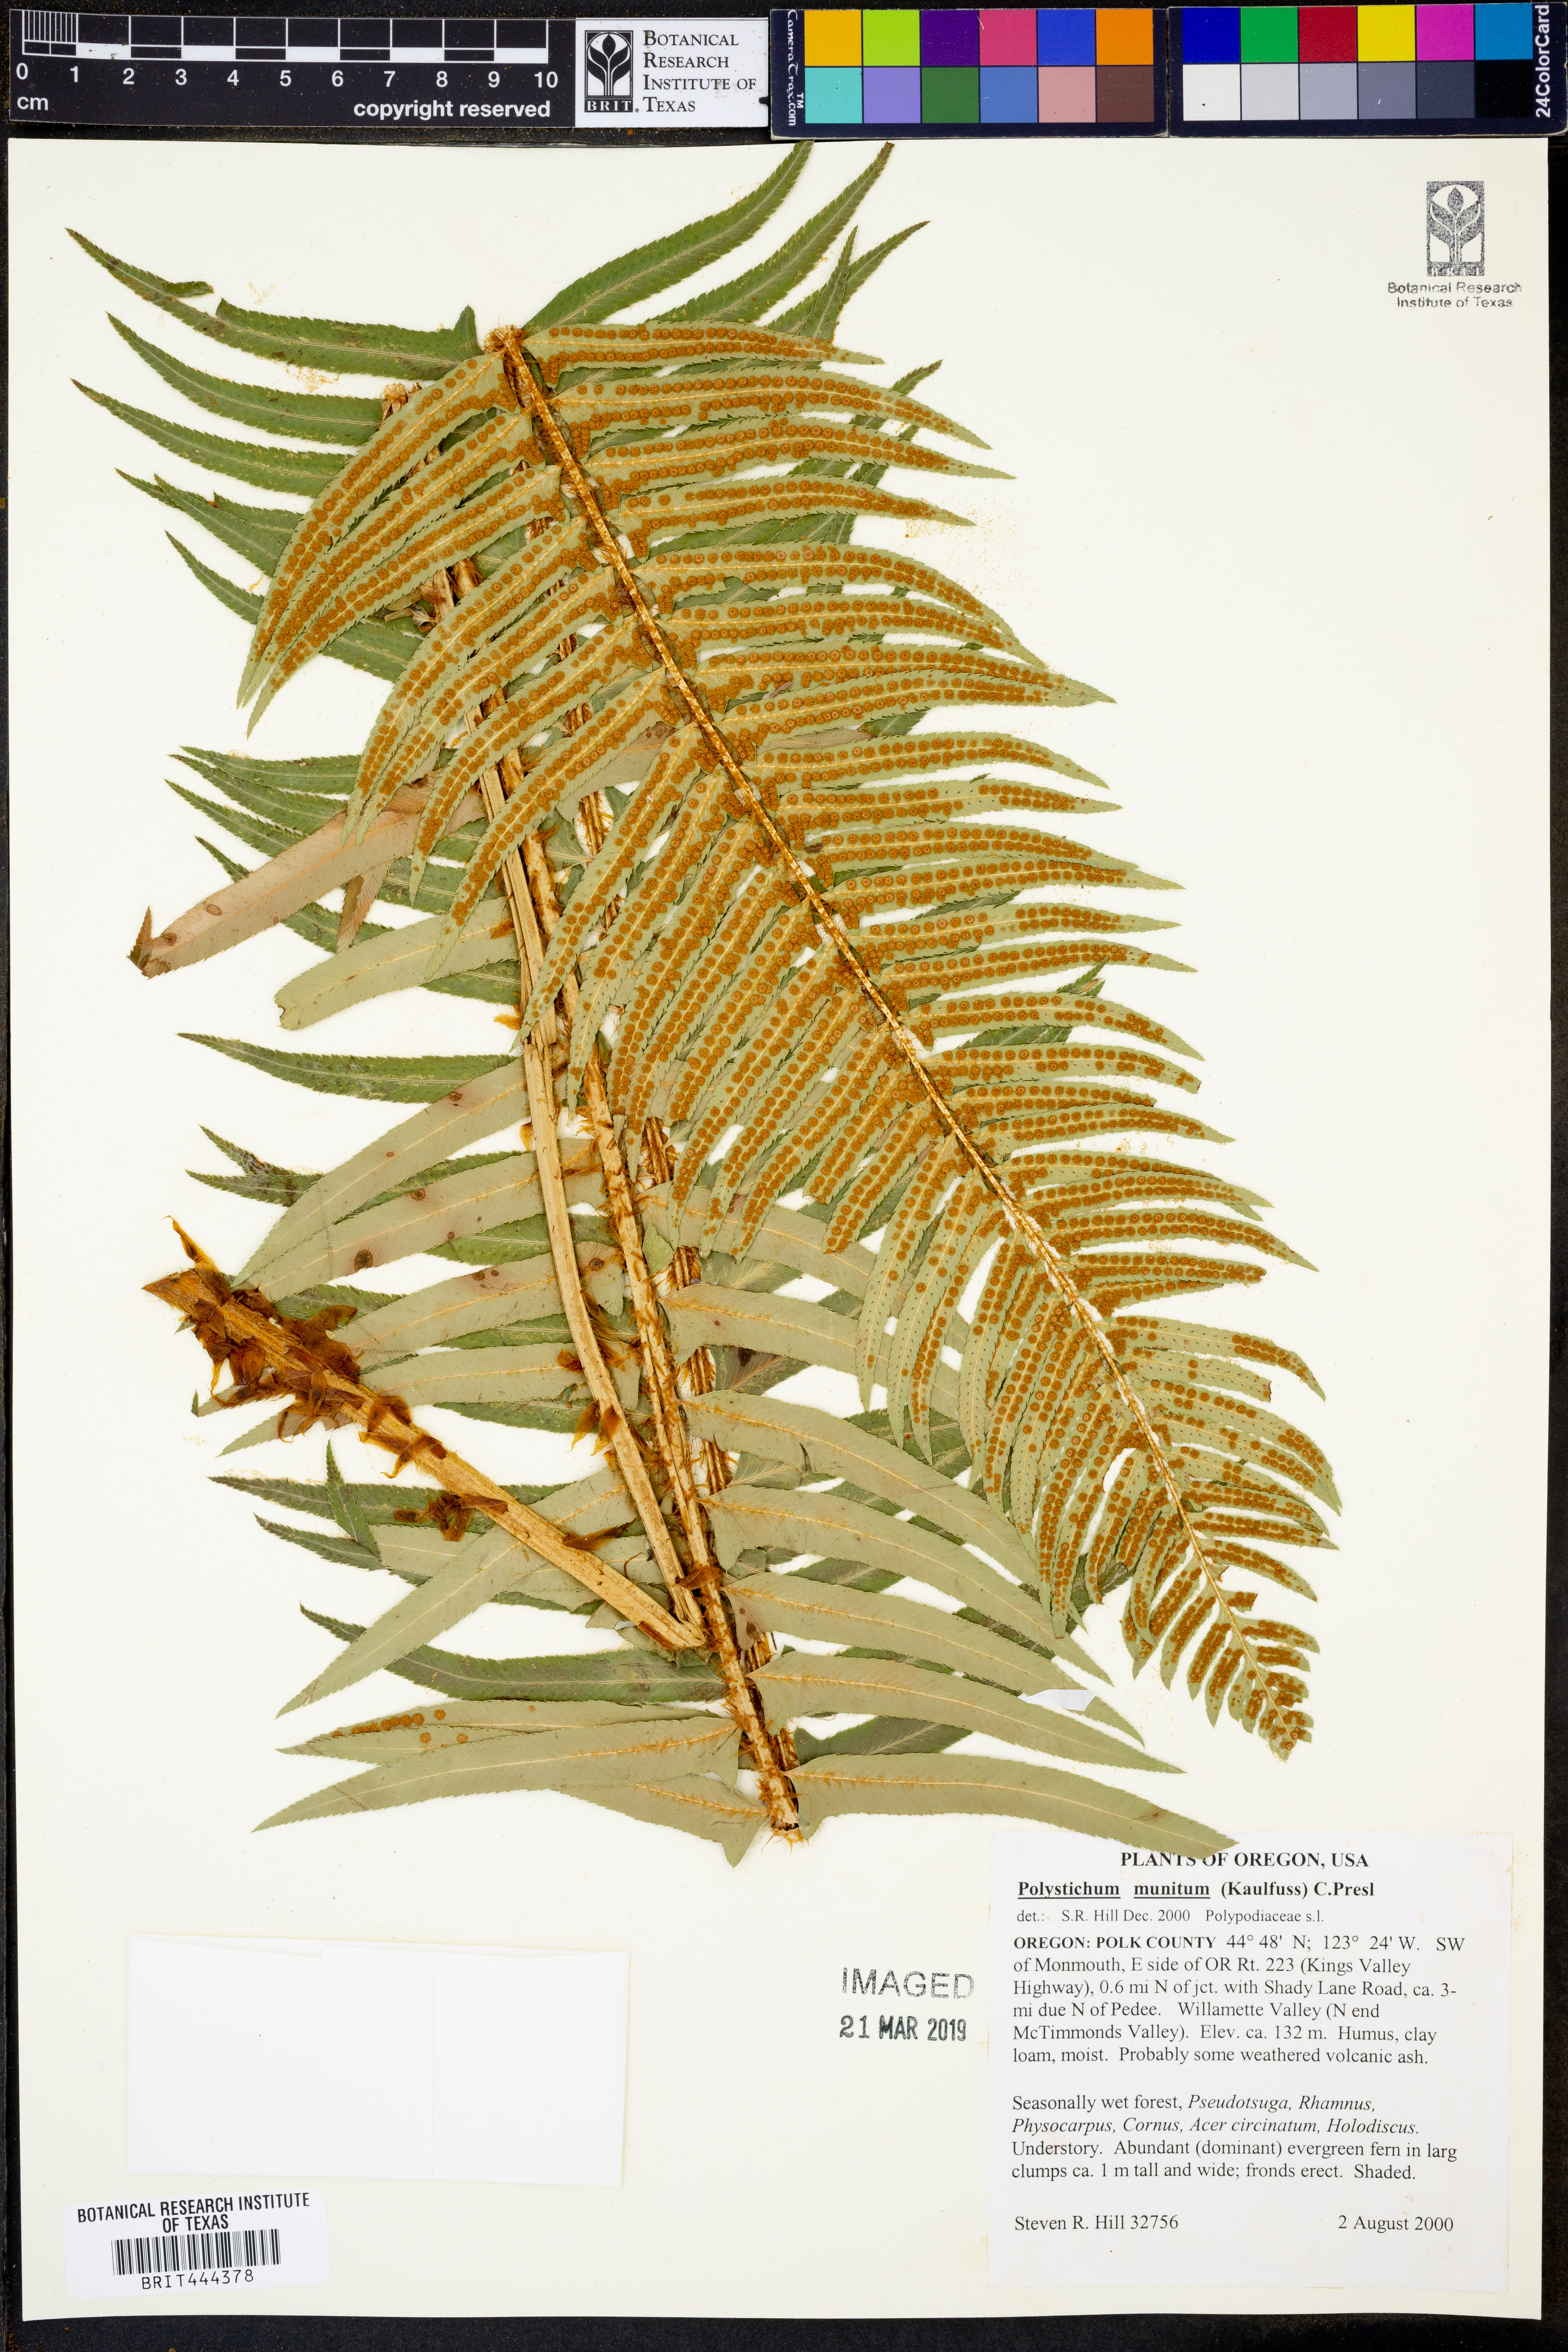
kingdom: Plantae
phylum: Tracheophyta
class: Polypodiopsida
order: Polypodiales
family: Dryopteridaceae
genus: Polystichum
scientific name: Polystichum munitum
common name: Western sword-fern
